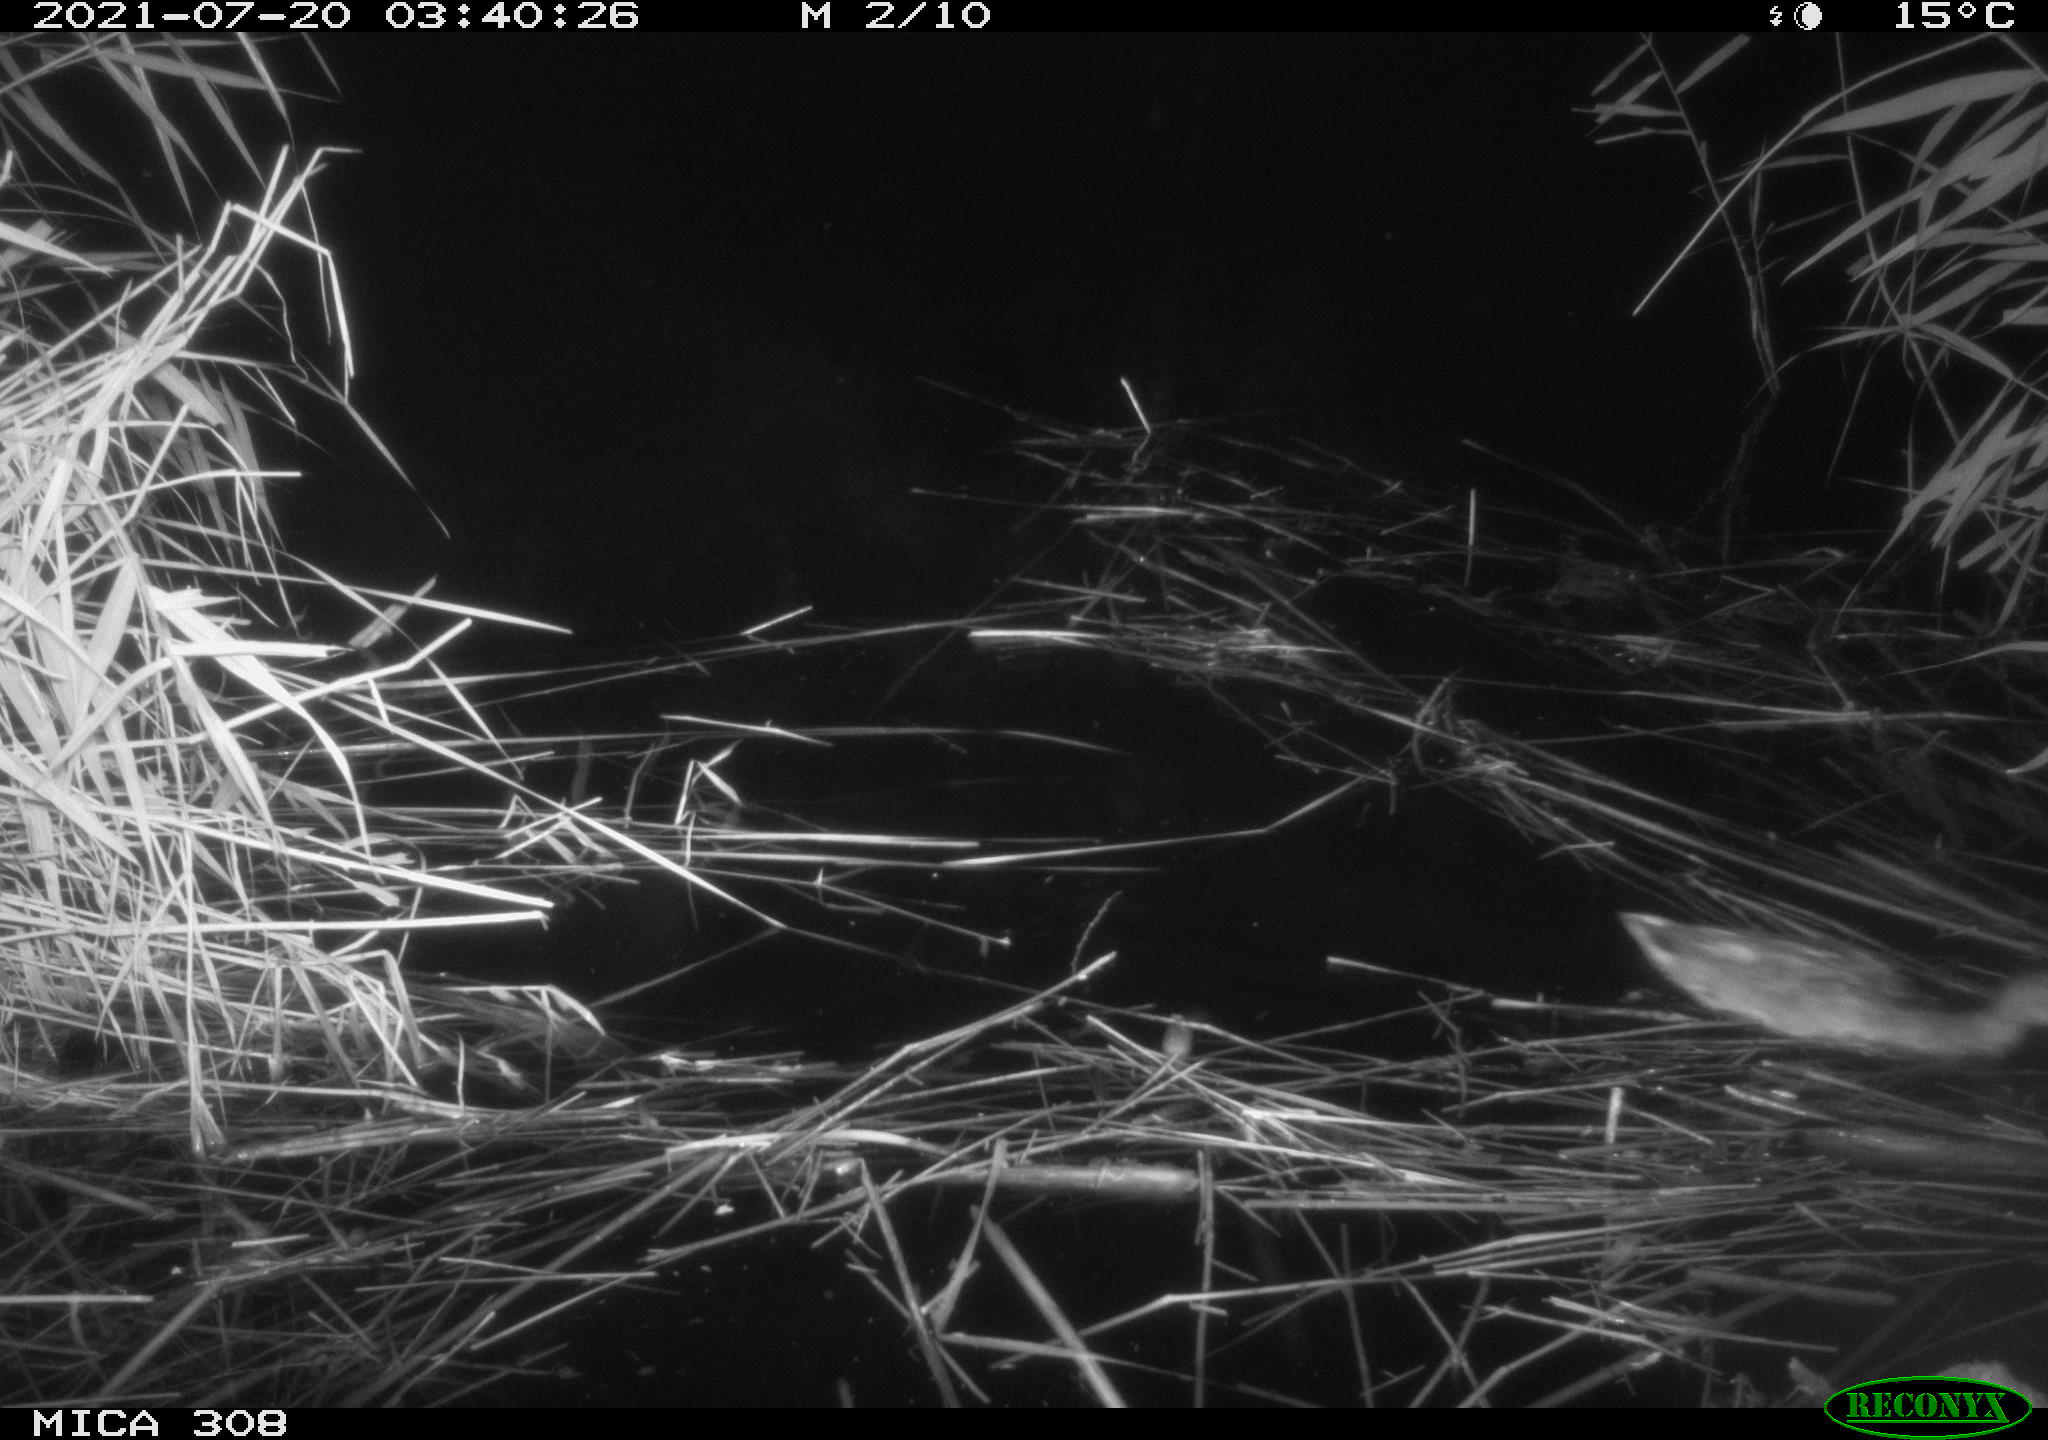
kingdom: Animalia
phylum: Chordata
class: Aves
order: Gruiformes
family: Rallidae
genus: Gallinula
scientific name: Gallinula chloropus
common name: Common moorhen
